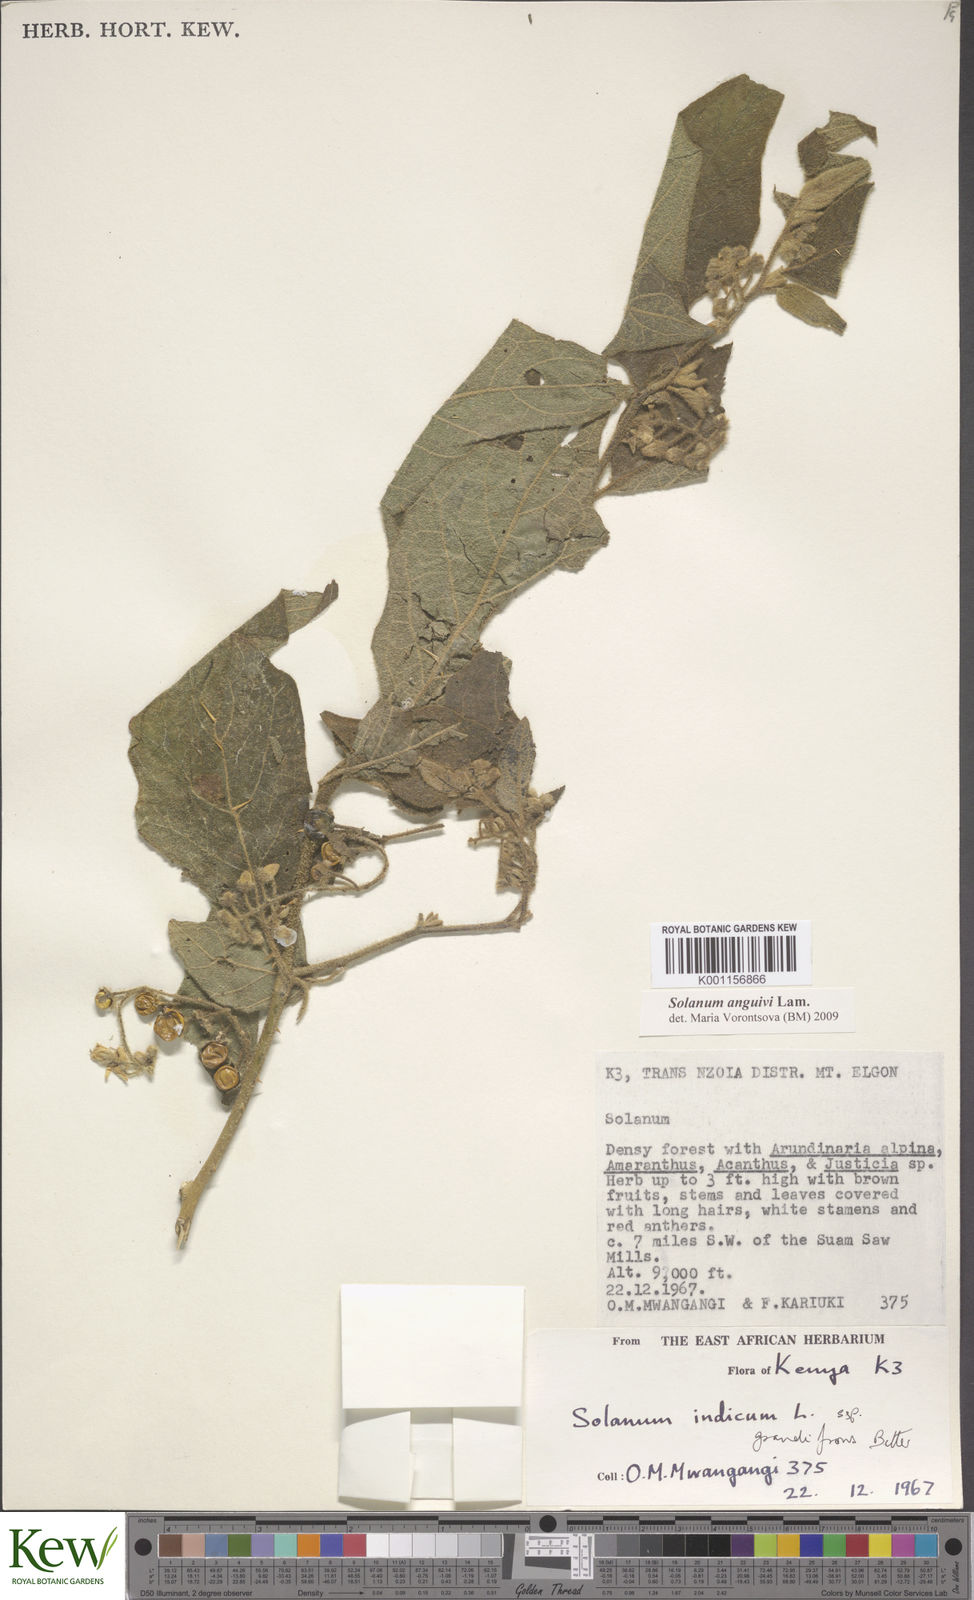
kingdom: Plantae
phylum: Tracheophyta
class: Magnoliopsida
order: Solanales
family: Solanaceae
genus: Solanum
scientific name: Solanum anguivi
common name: Forest bitterberry
